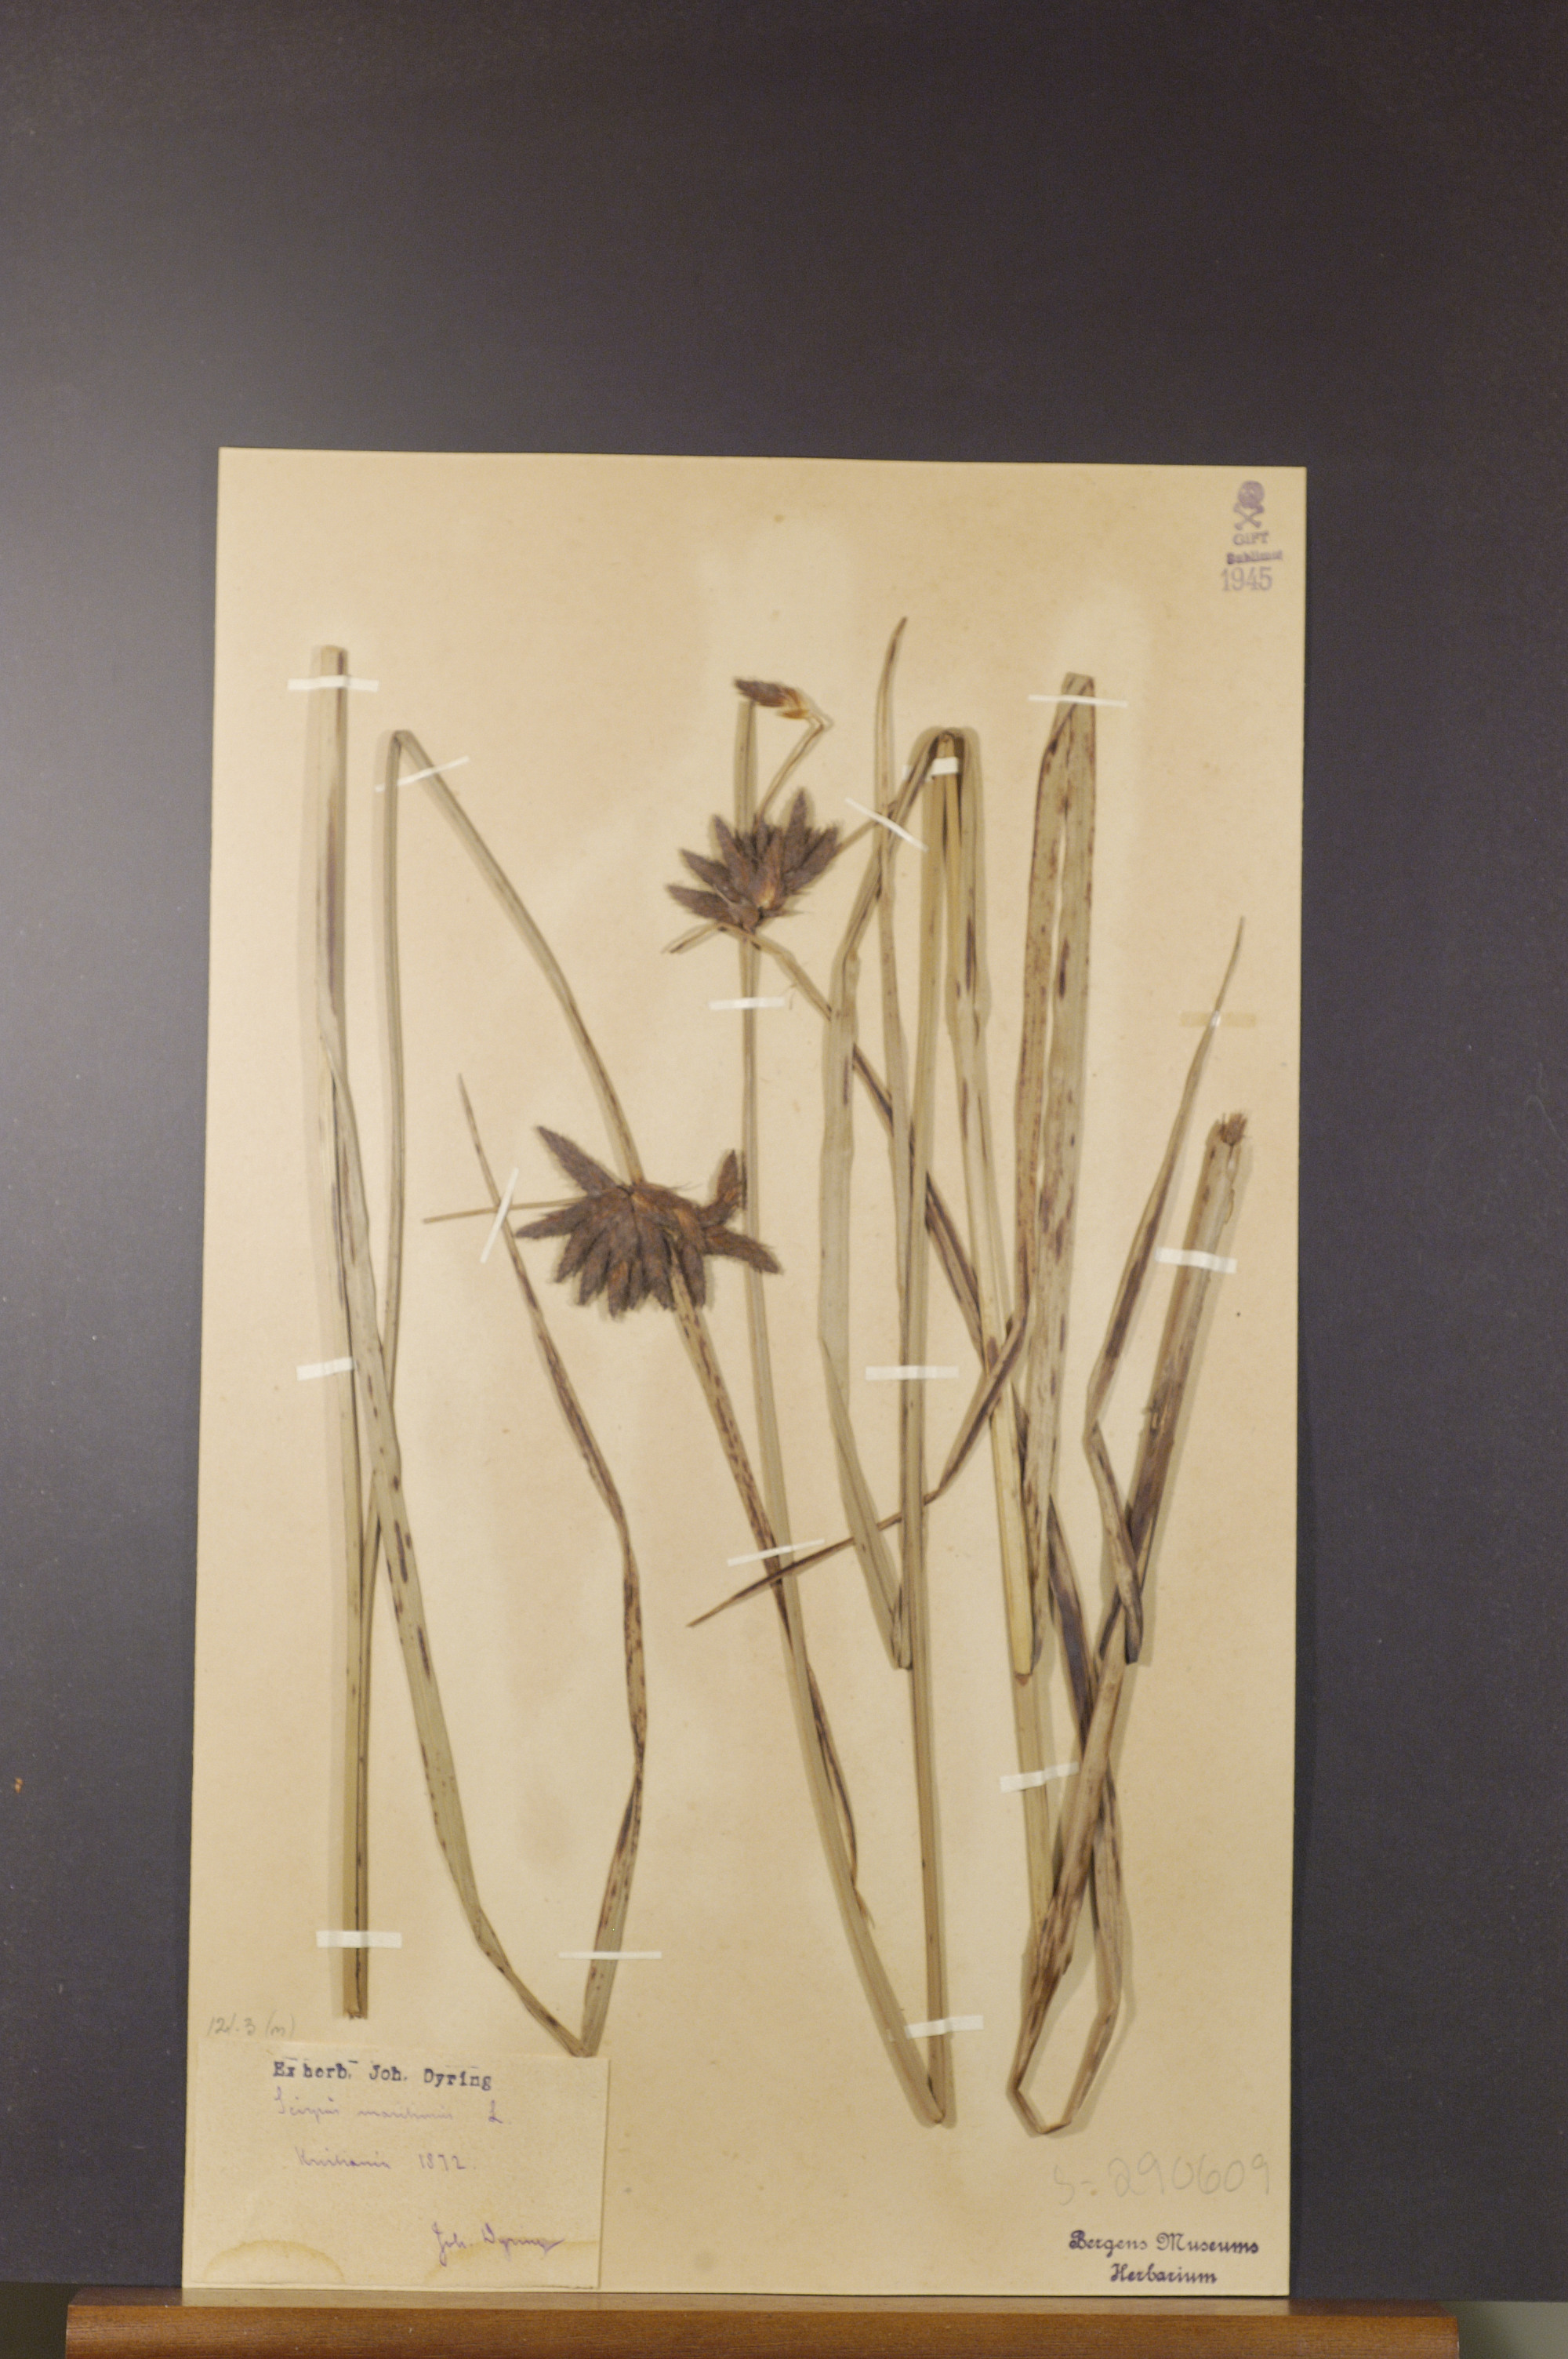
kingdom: Plantae
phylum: Tracheophyta
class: Liliopsida
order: Poales
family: Cyperaceae
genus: Bolboschoenus
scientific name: Bolboschoenus maritimus
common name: Sea club-rush
